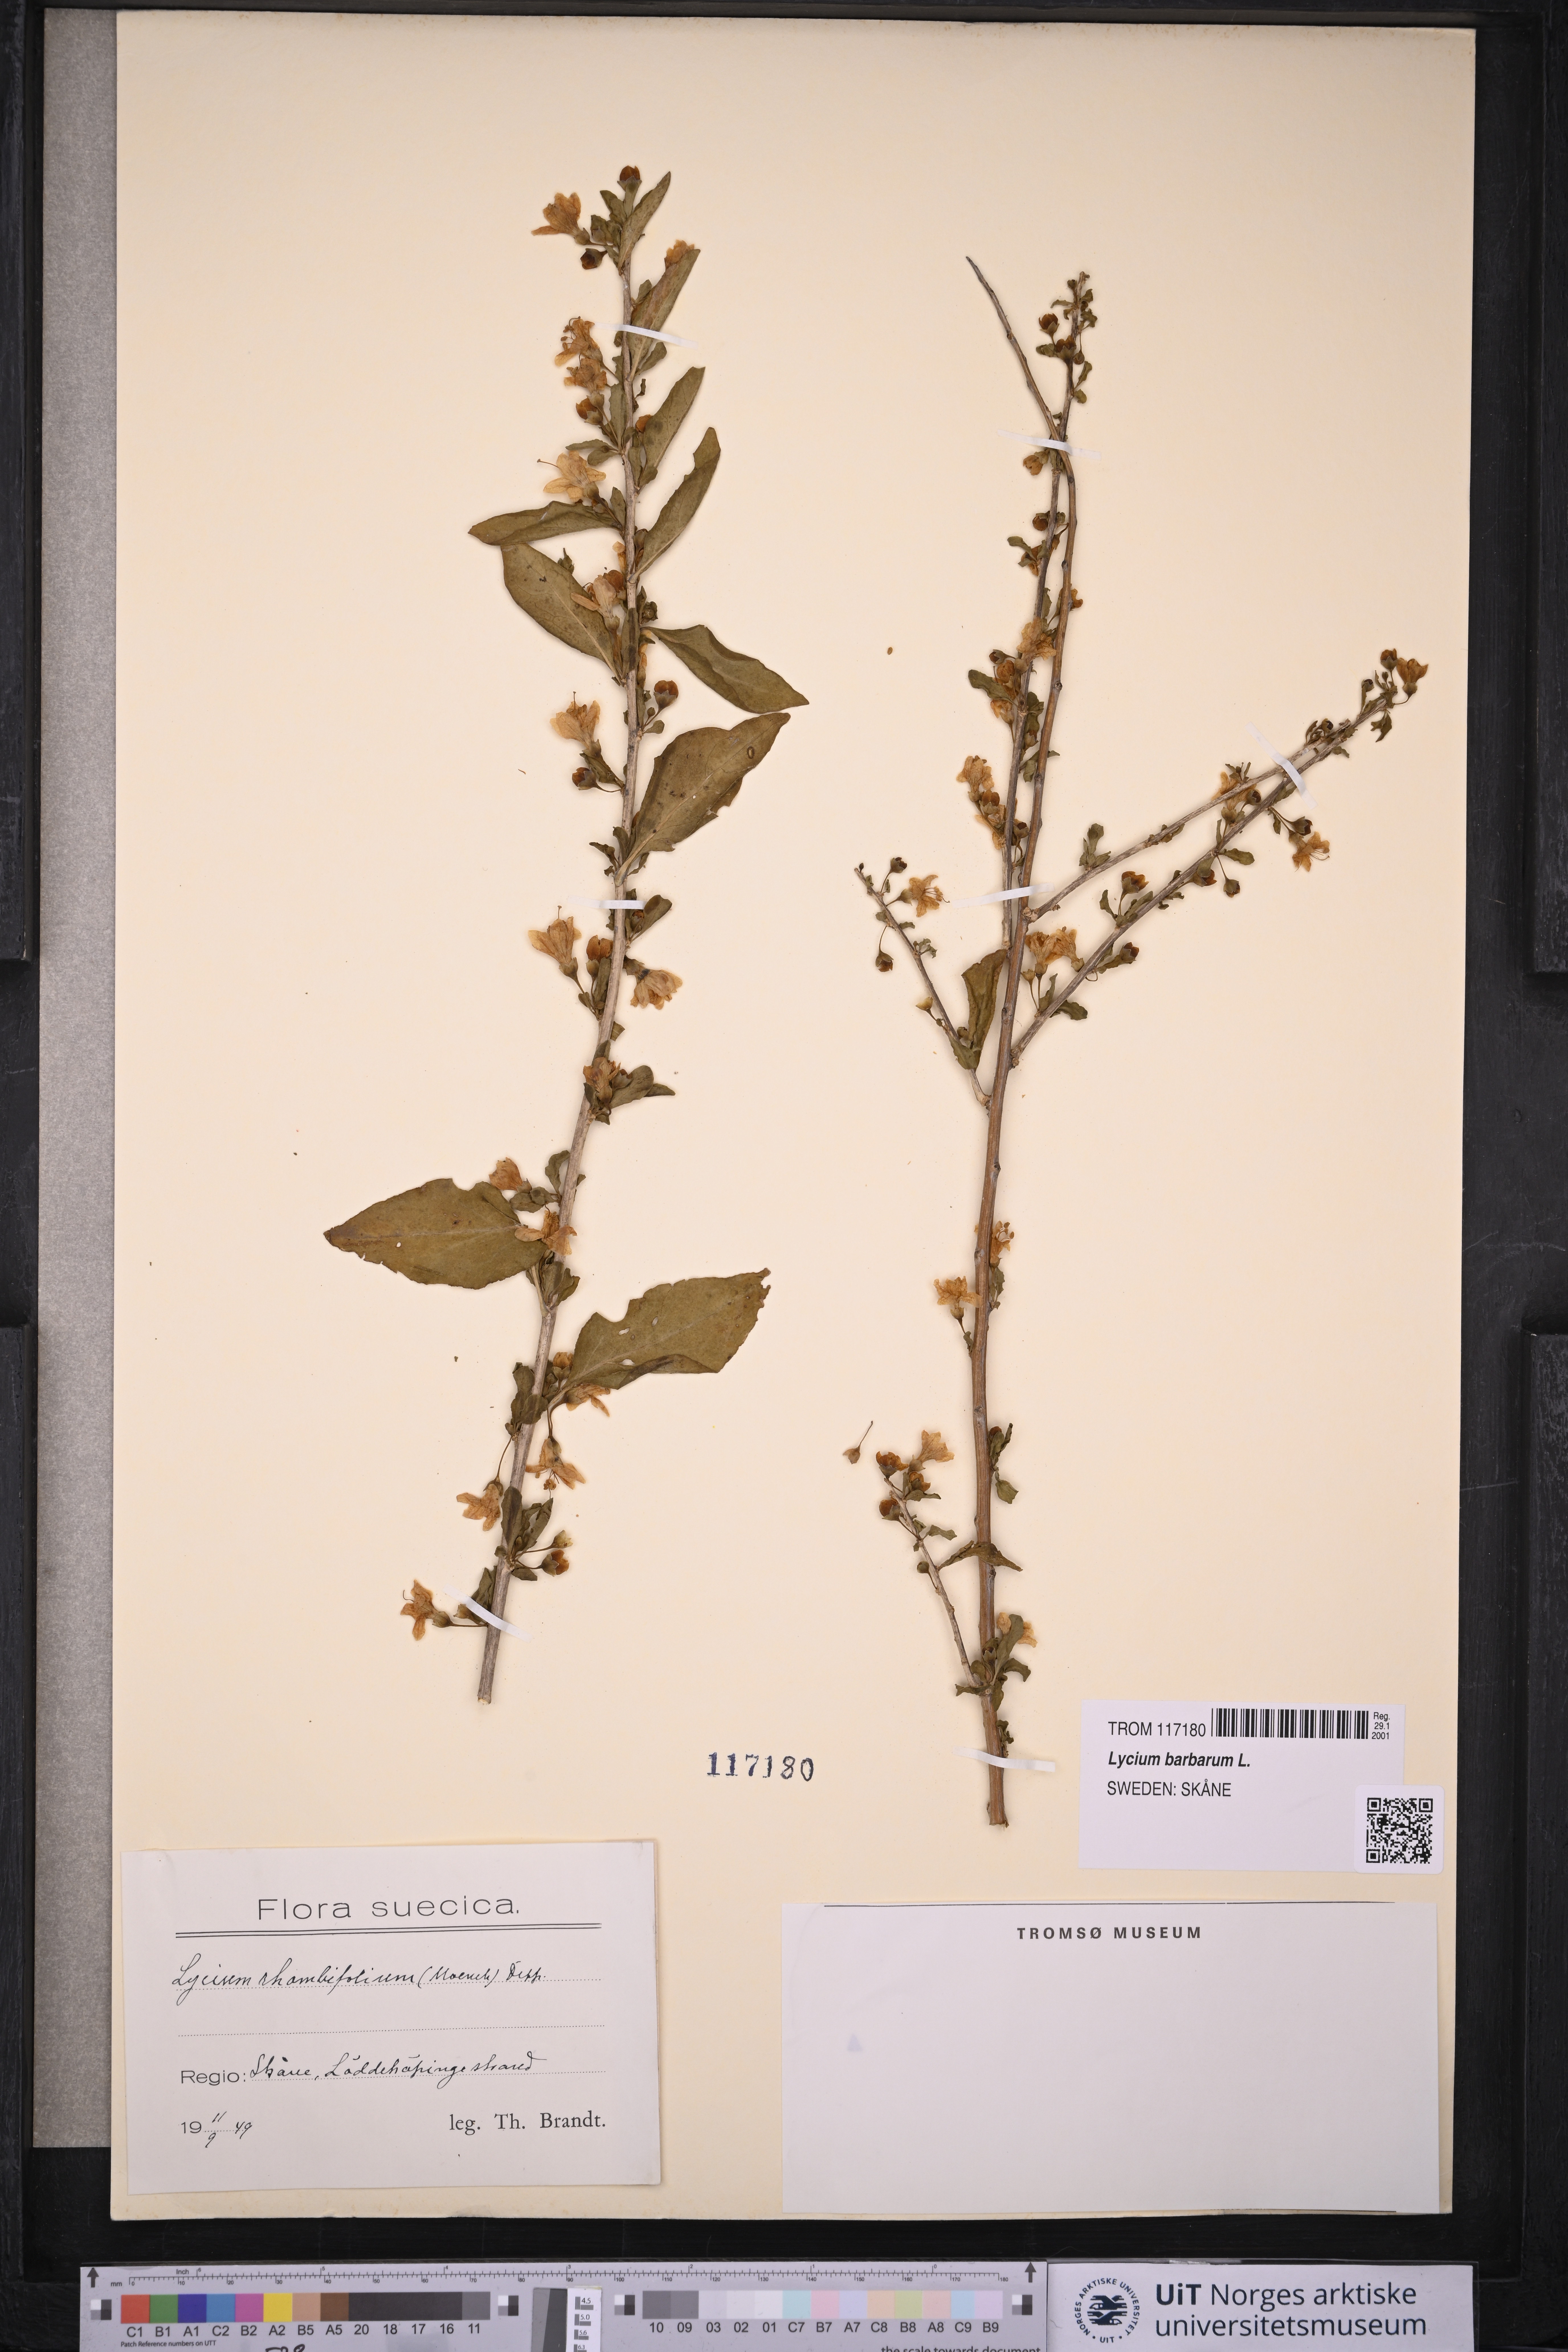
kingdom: Plantae
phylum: Tracheophyta
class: Magnoliopsida
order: Solanales
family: Solanaceae
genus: Lycium
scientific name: Lycium barbarum
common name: Duke of argyll's teaplant
